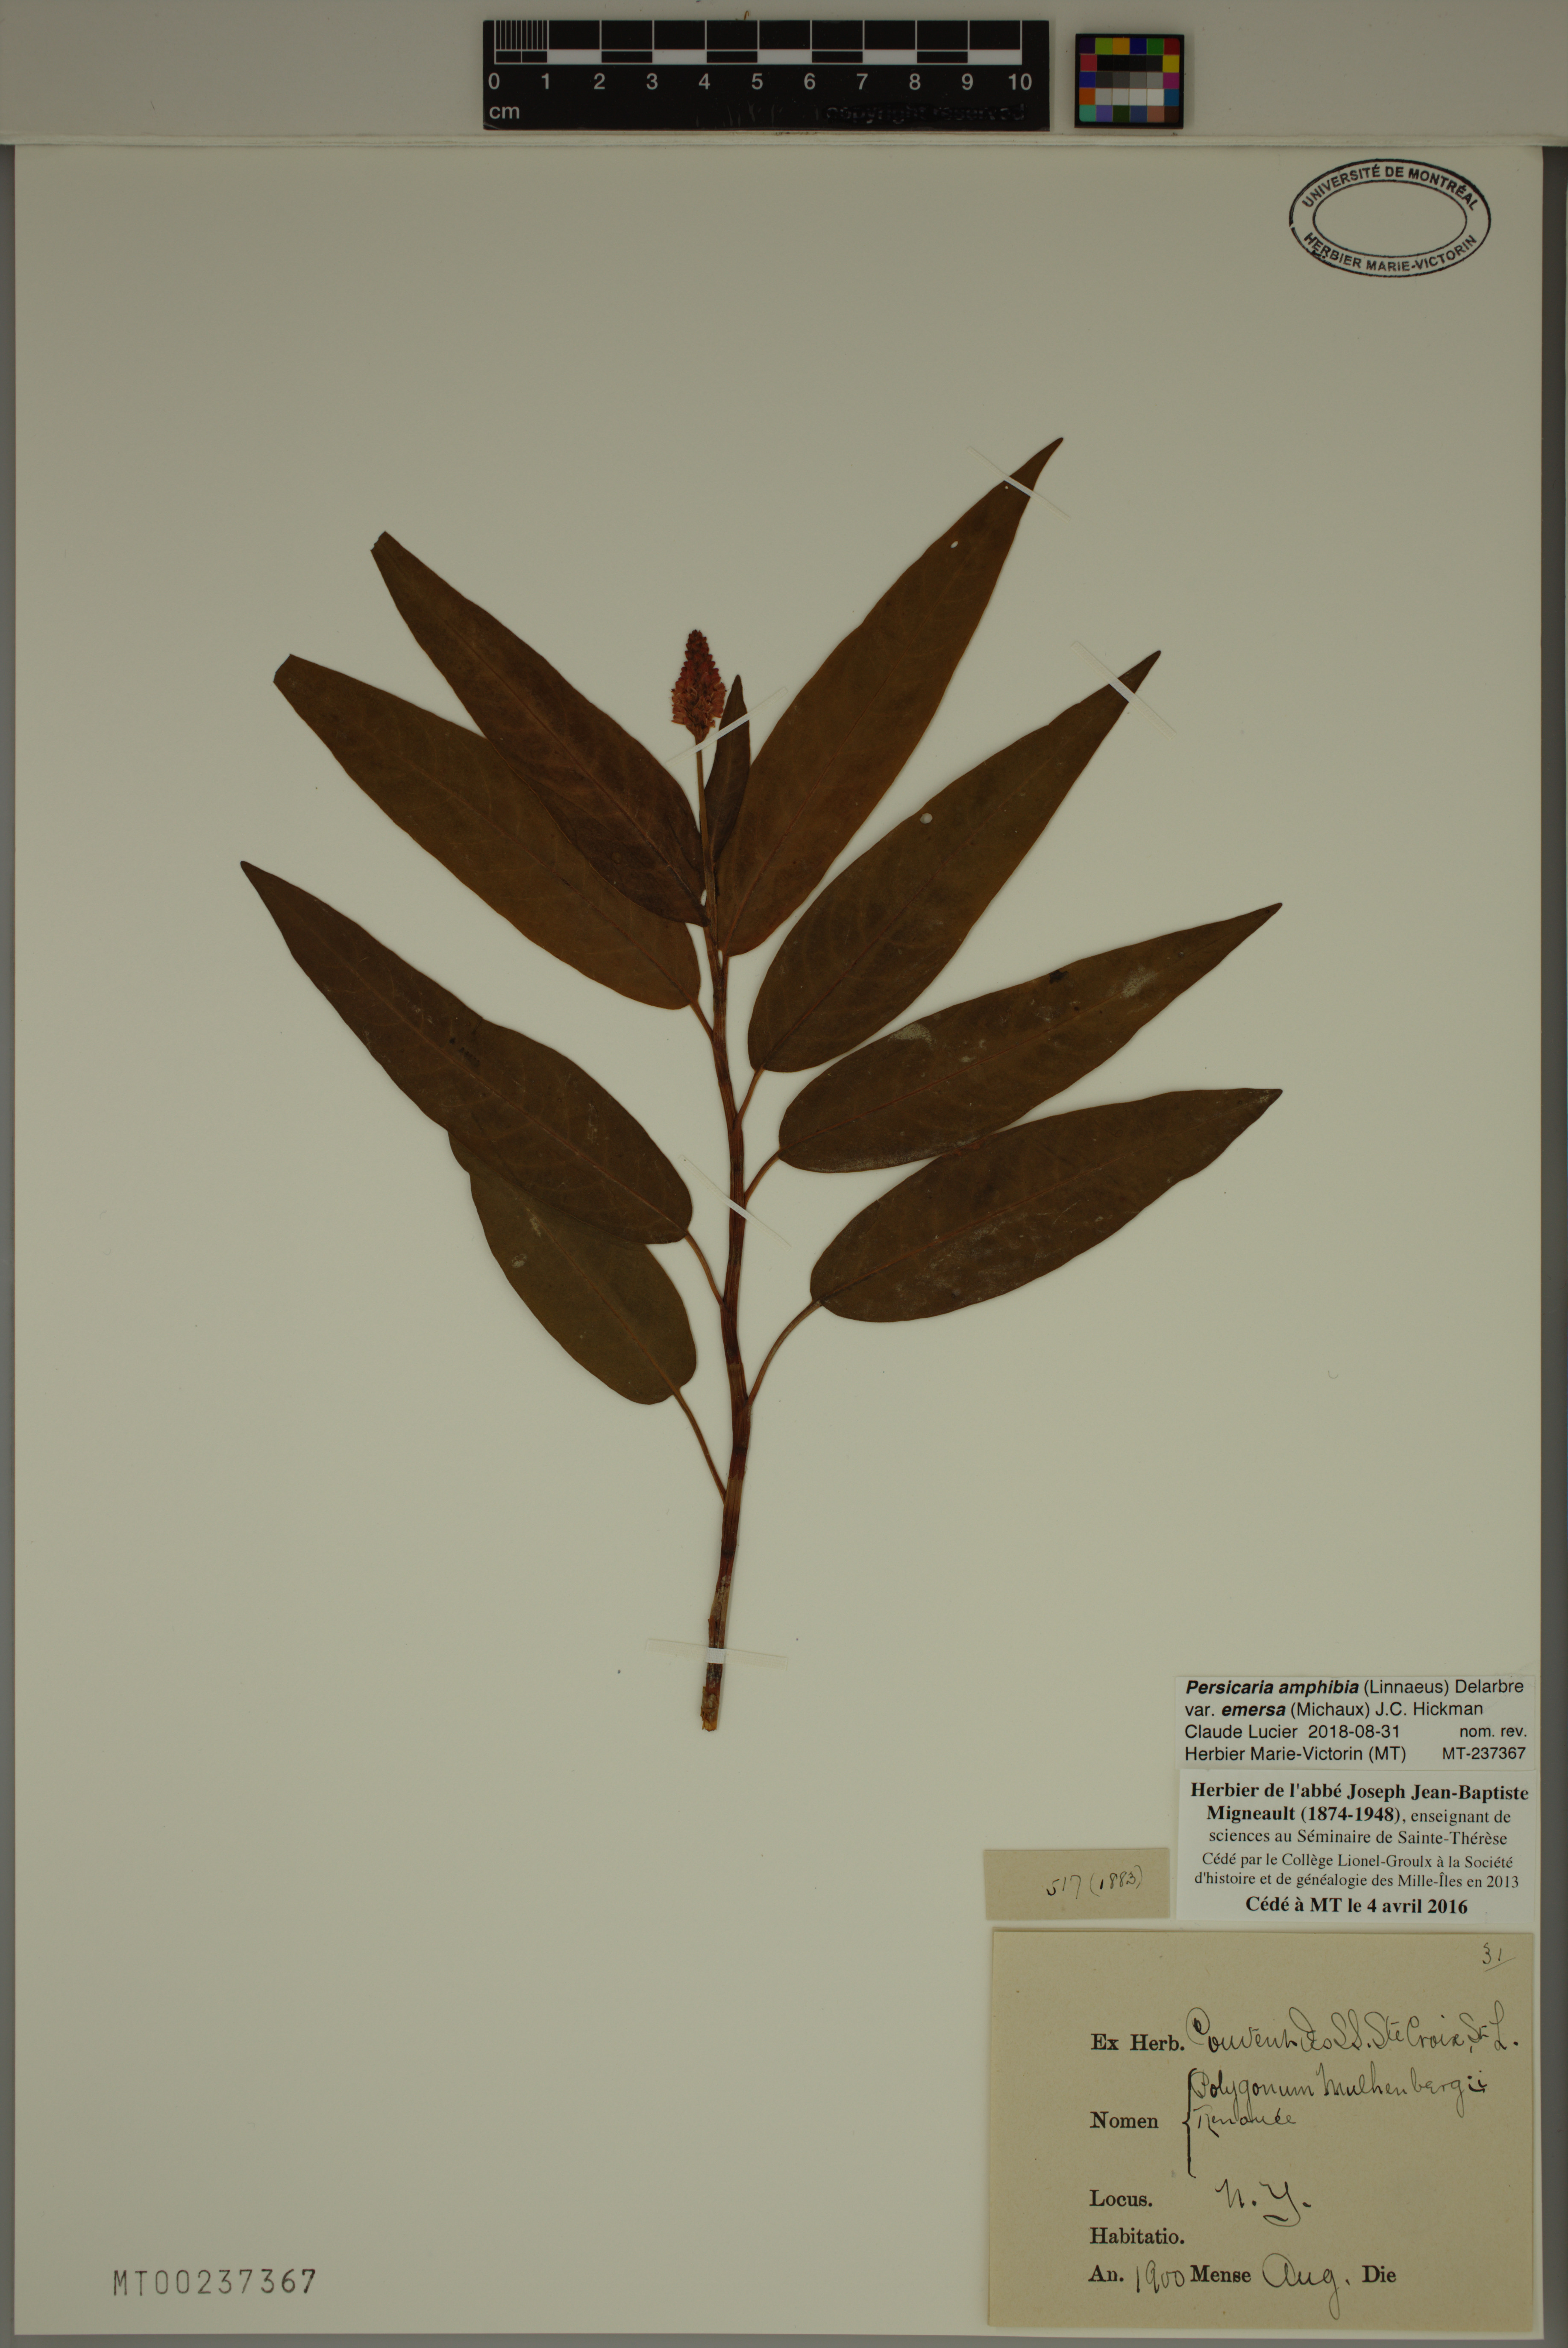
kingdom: Plantae
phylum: Tracheophyta
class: Magnoliopsida
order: Caryophyllales
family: Polygonaceae
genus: Persicaria
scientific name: Persicaria amphibia
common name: Amphibious bistort
